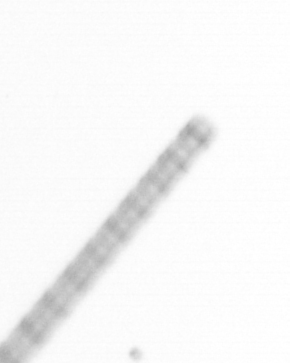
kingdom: Chromista
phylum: Ochrophyta
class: Bacillariophyceae
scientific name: Bacillariophyceae
